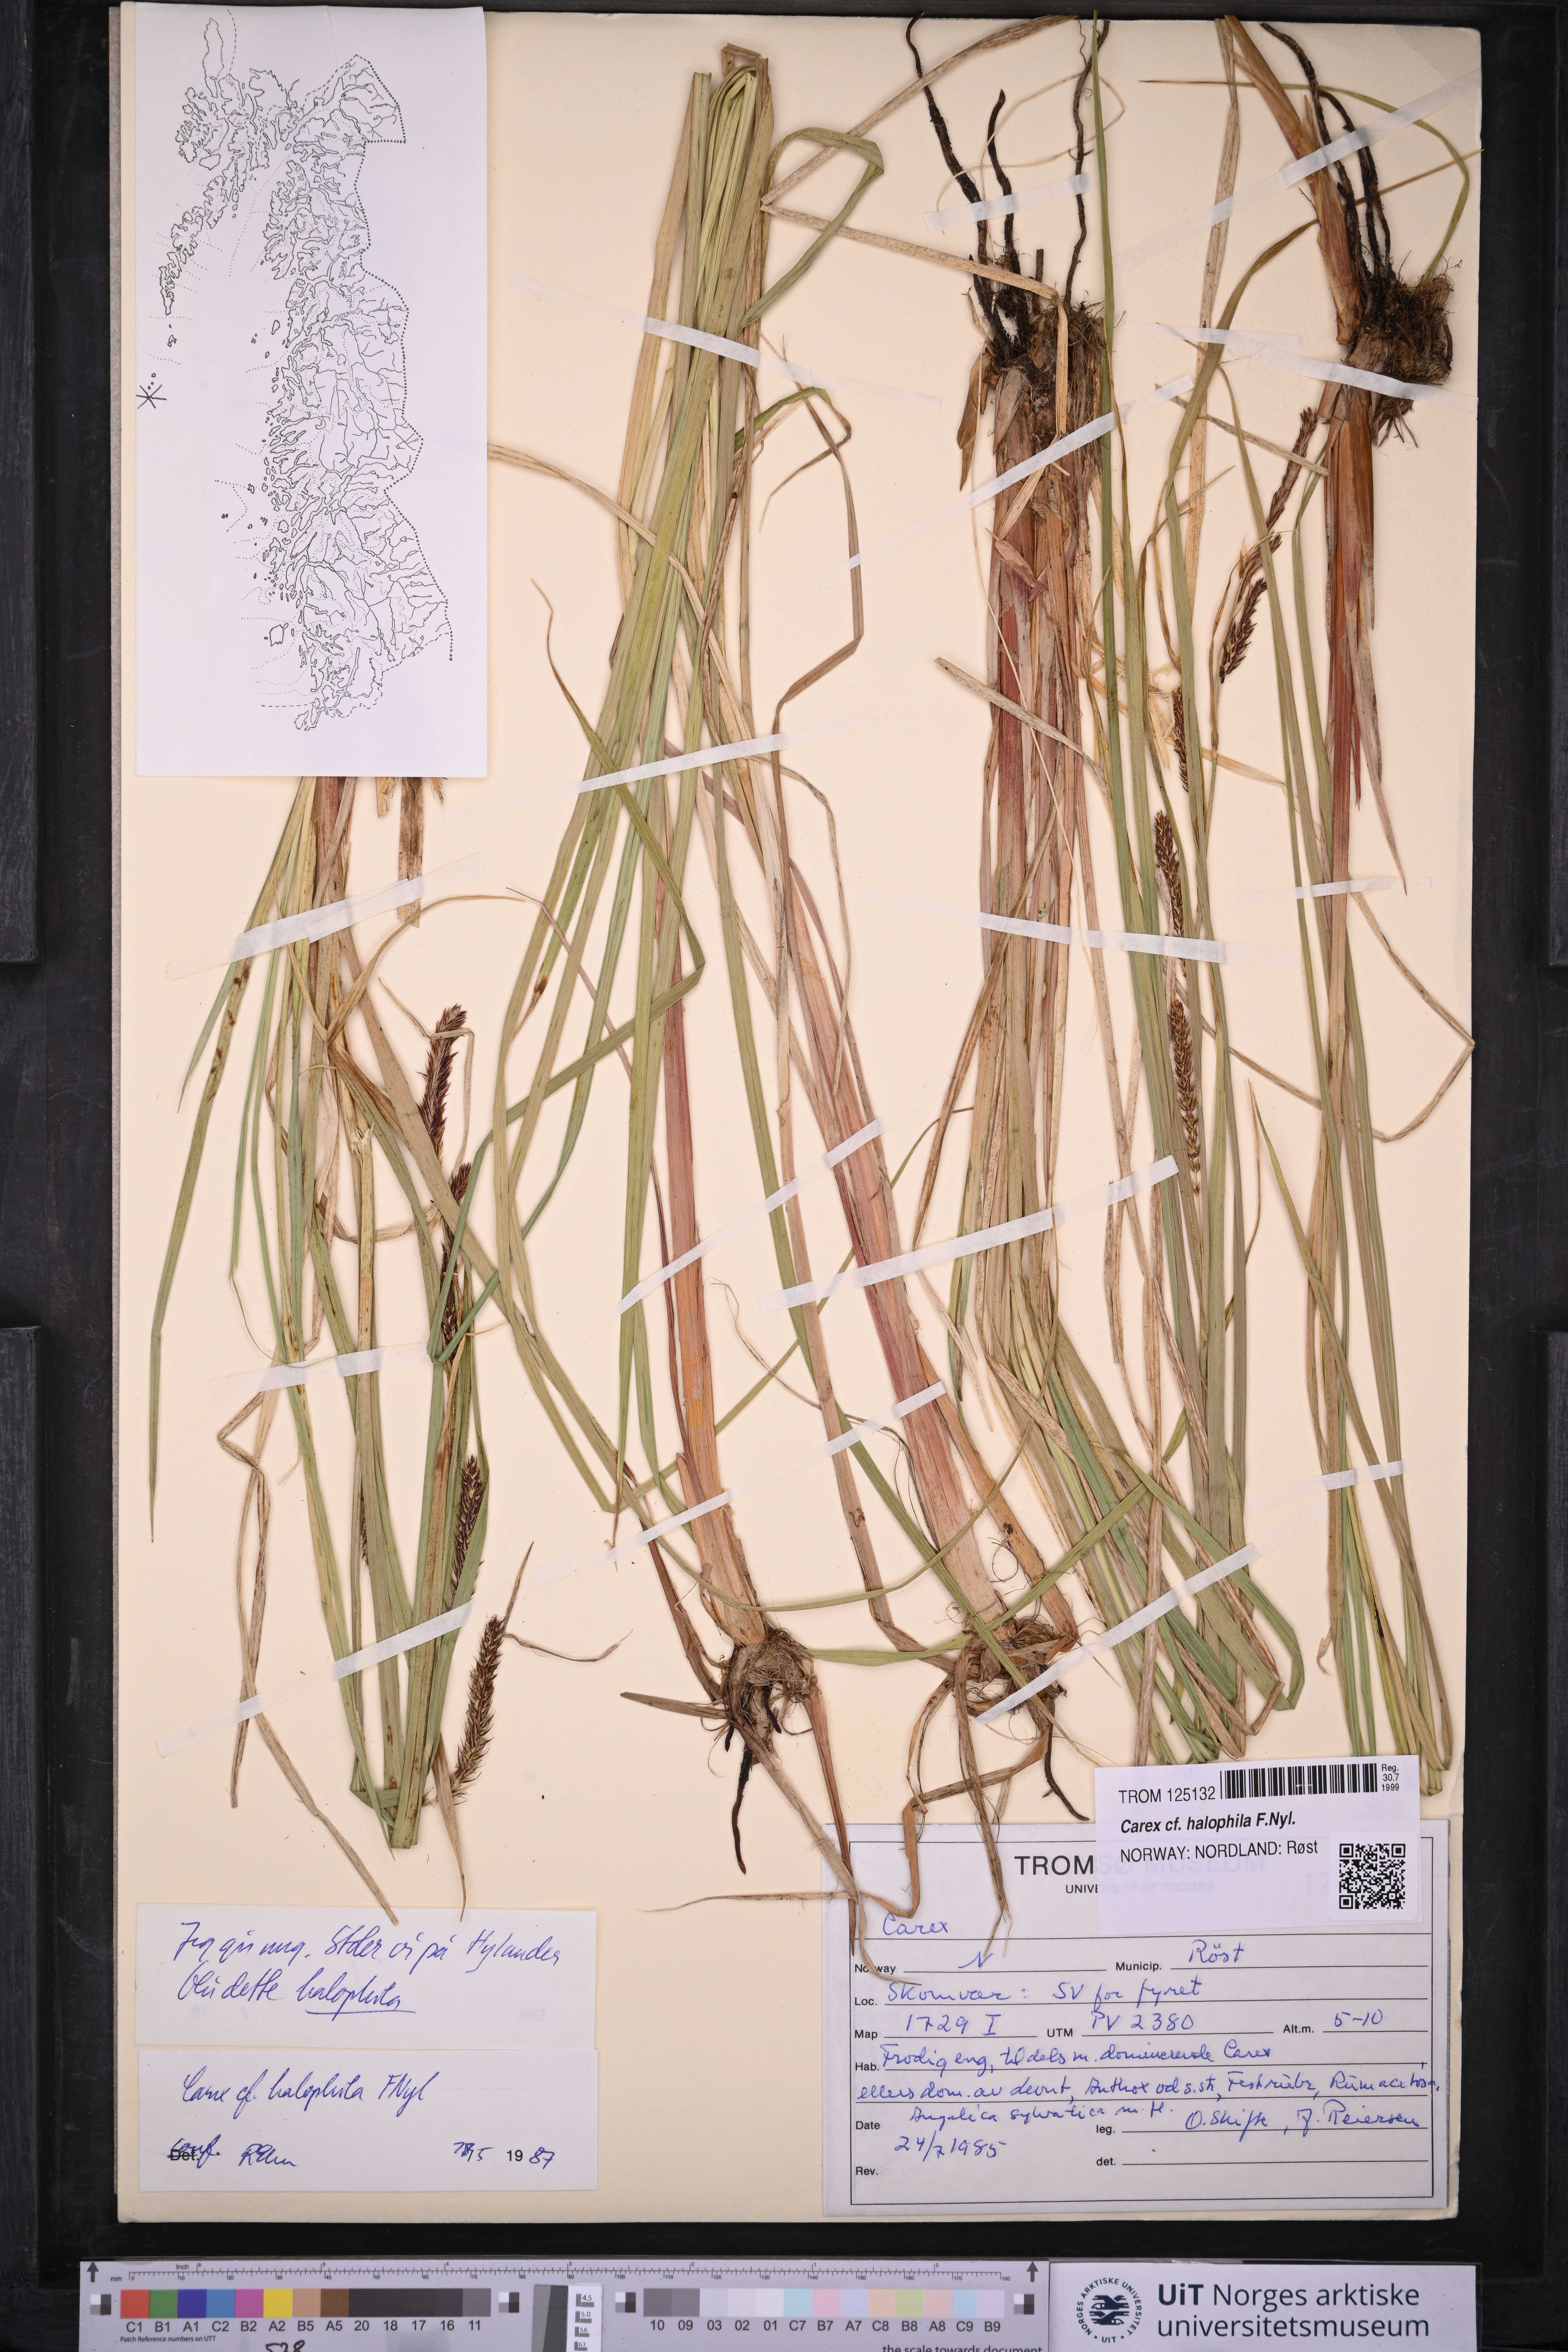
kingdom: Plantae
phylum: Tracheophyta
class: Liliopsida
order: Poales
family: Cyperaceae
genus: Carex
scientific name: Carex halophila
